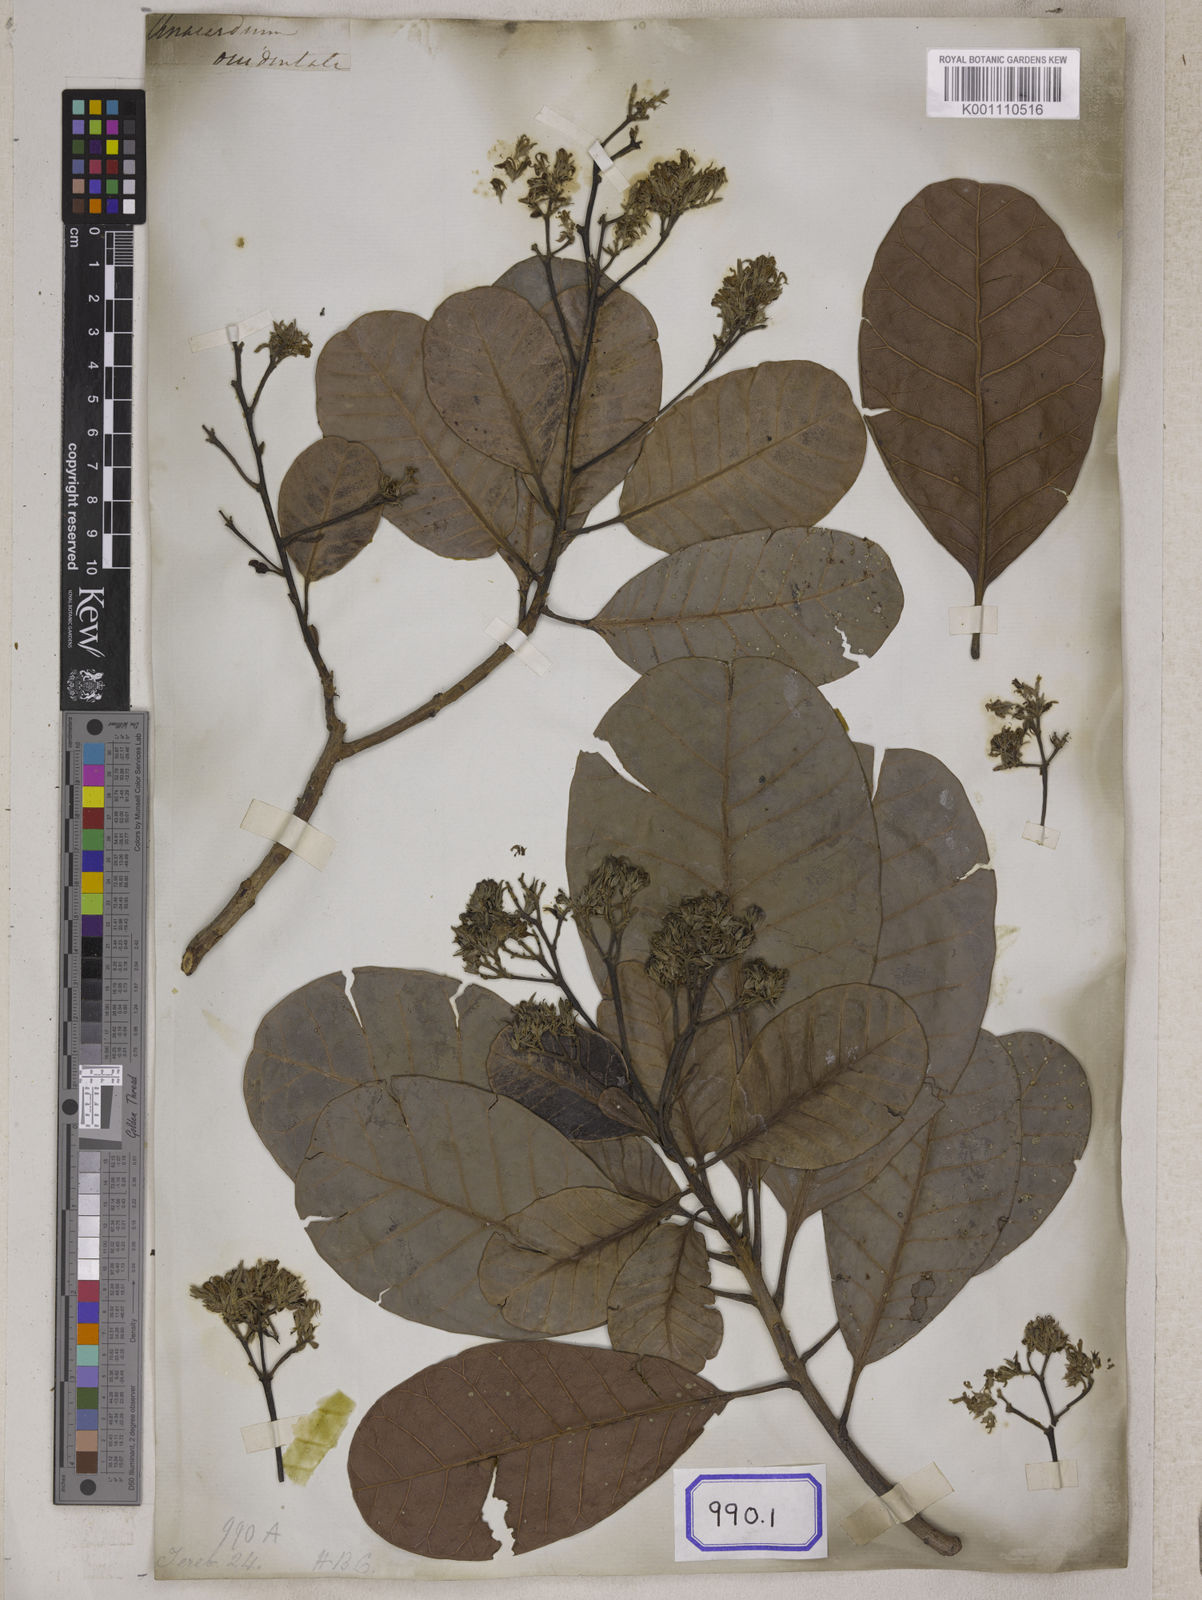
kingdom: Plantae
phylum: Tracheophyta
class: Magnoliopsida
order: Sapindales
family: Anacardiaceae
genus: Anacardium
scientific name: Anacardium occidentale
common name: Cashew
